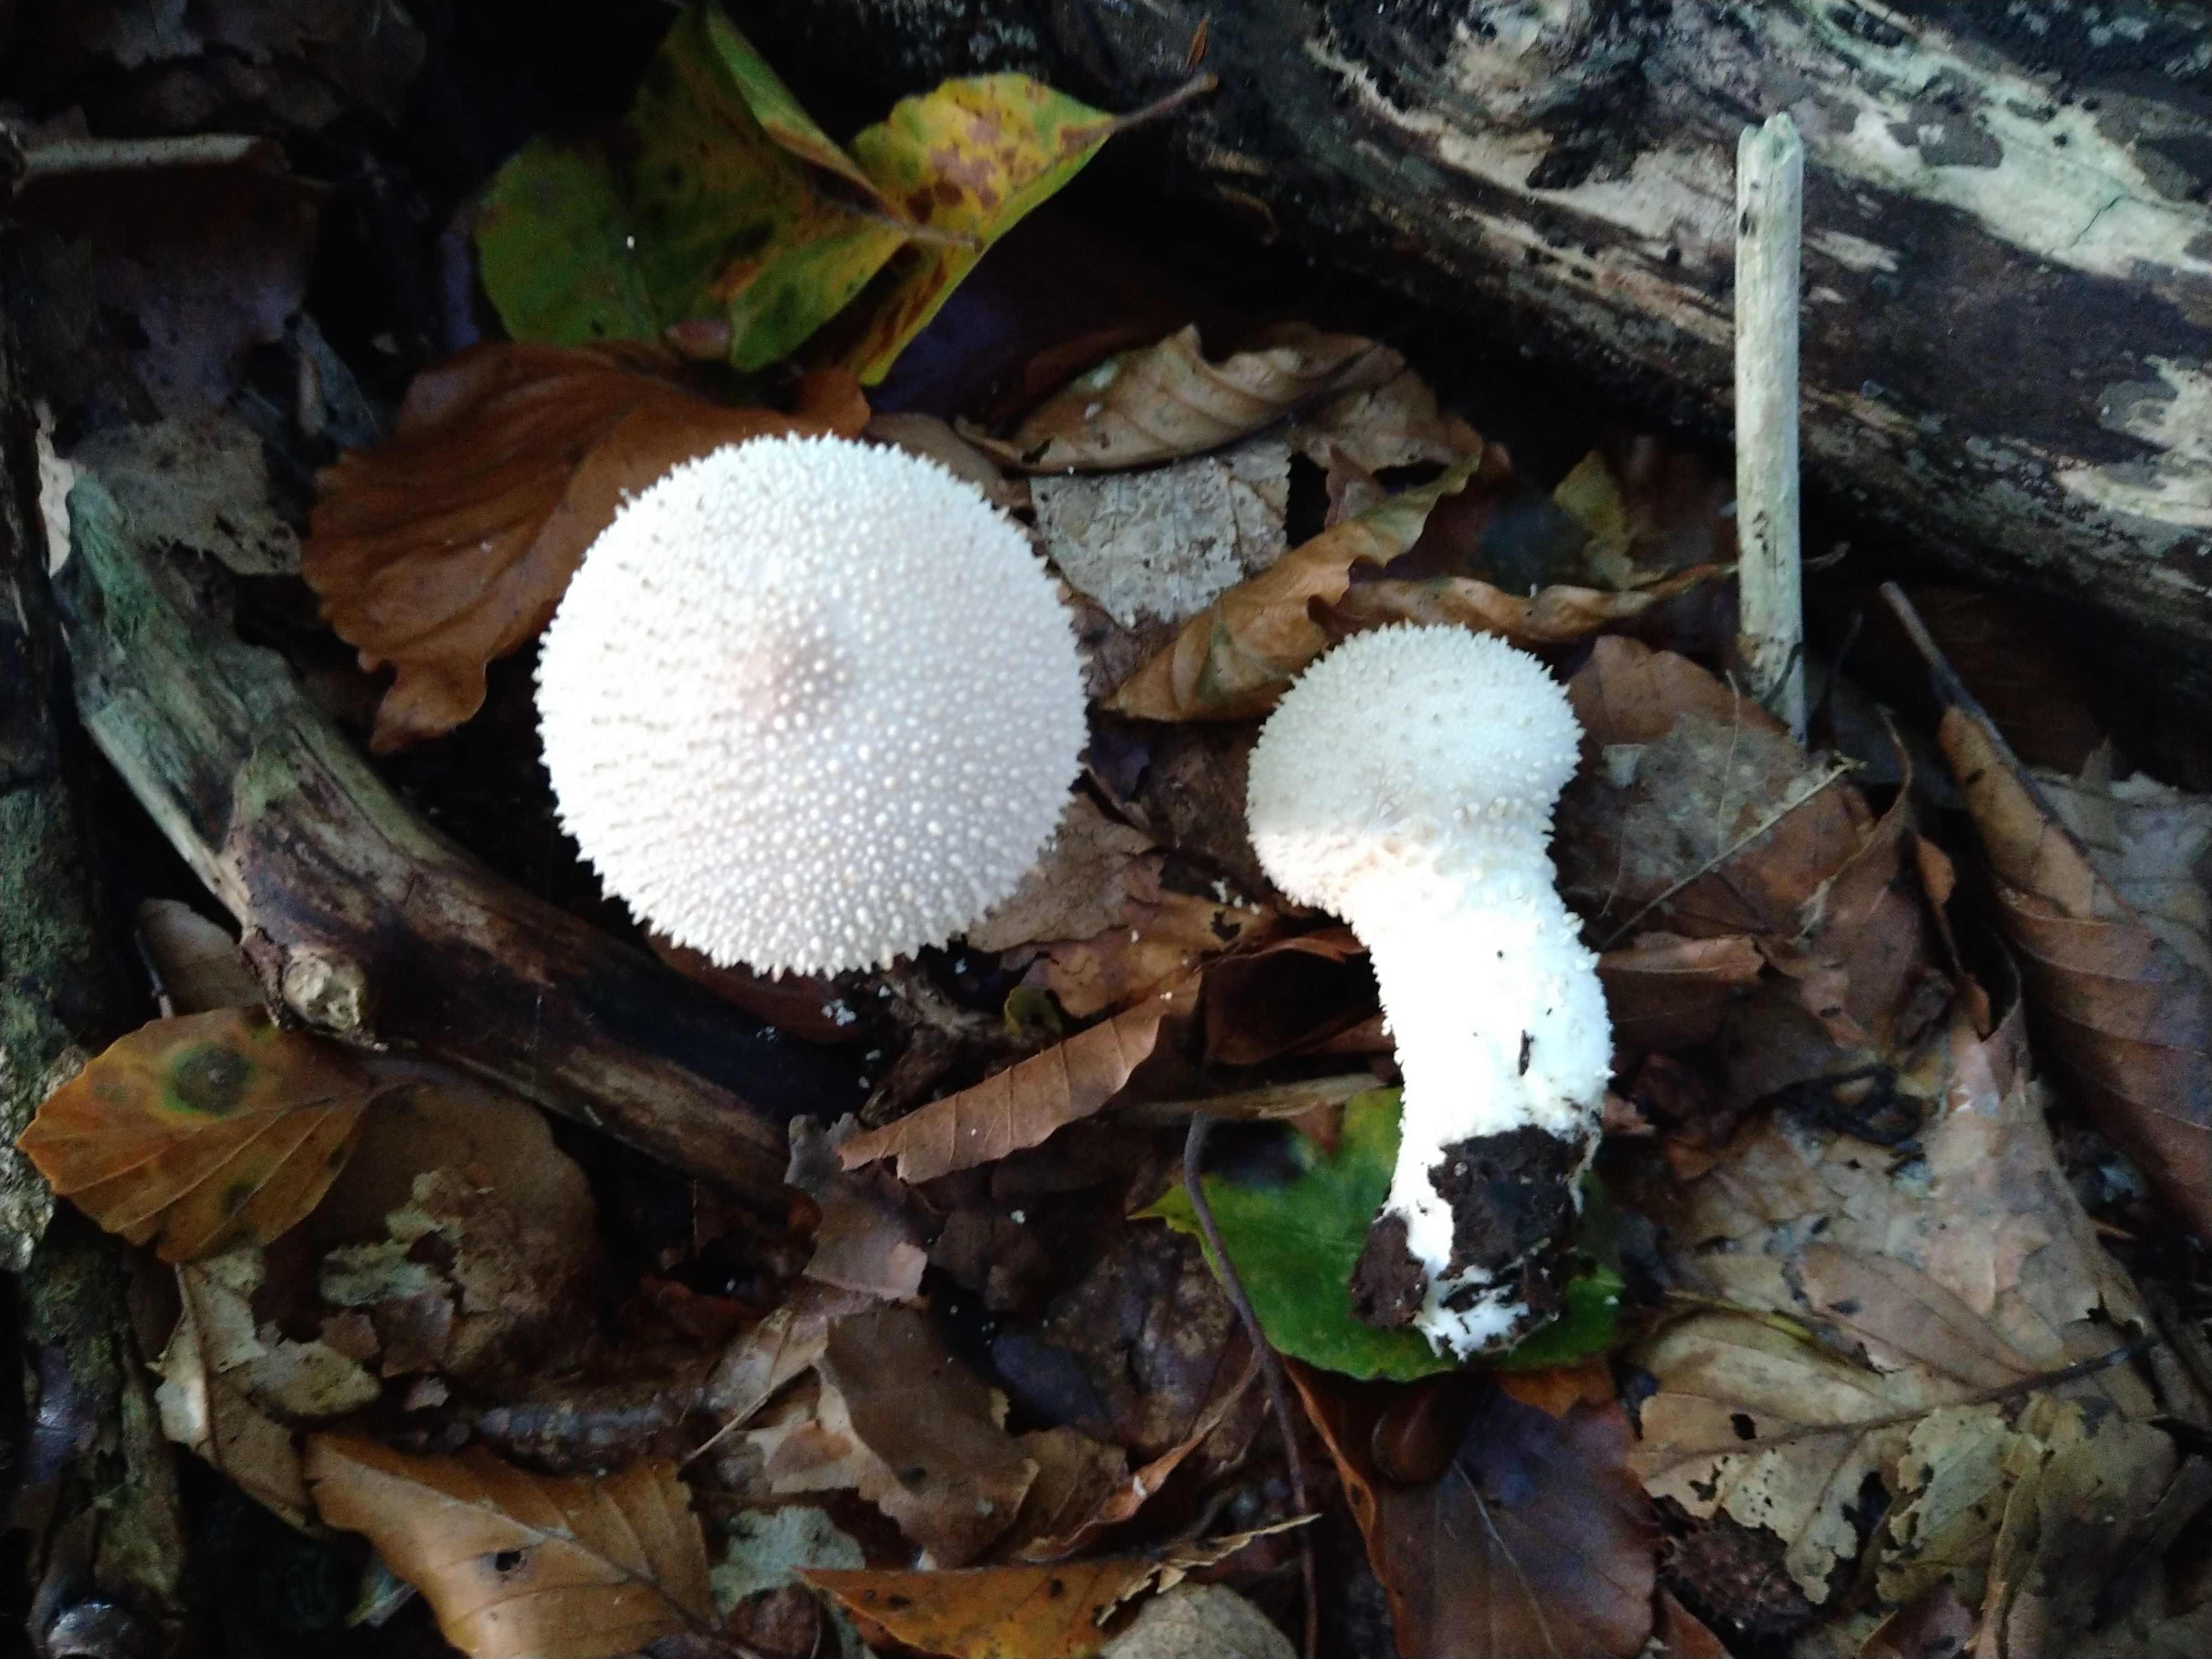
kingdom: Fungi
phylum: Basidiomycota
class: Agaricomycetes
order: Agaricales
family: Lycoperdaceae
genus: Lycoperdon
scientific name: Lycoperdon perlatum
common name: krystal-støvbold
